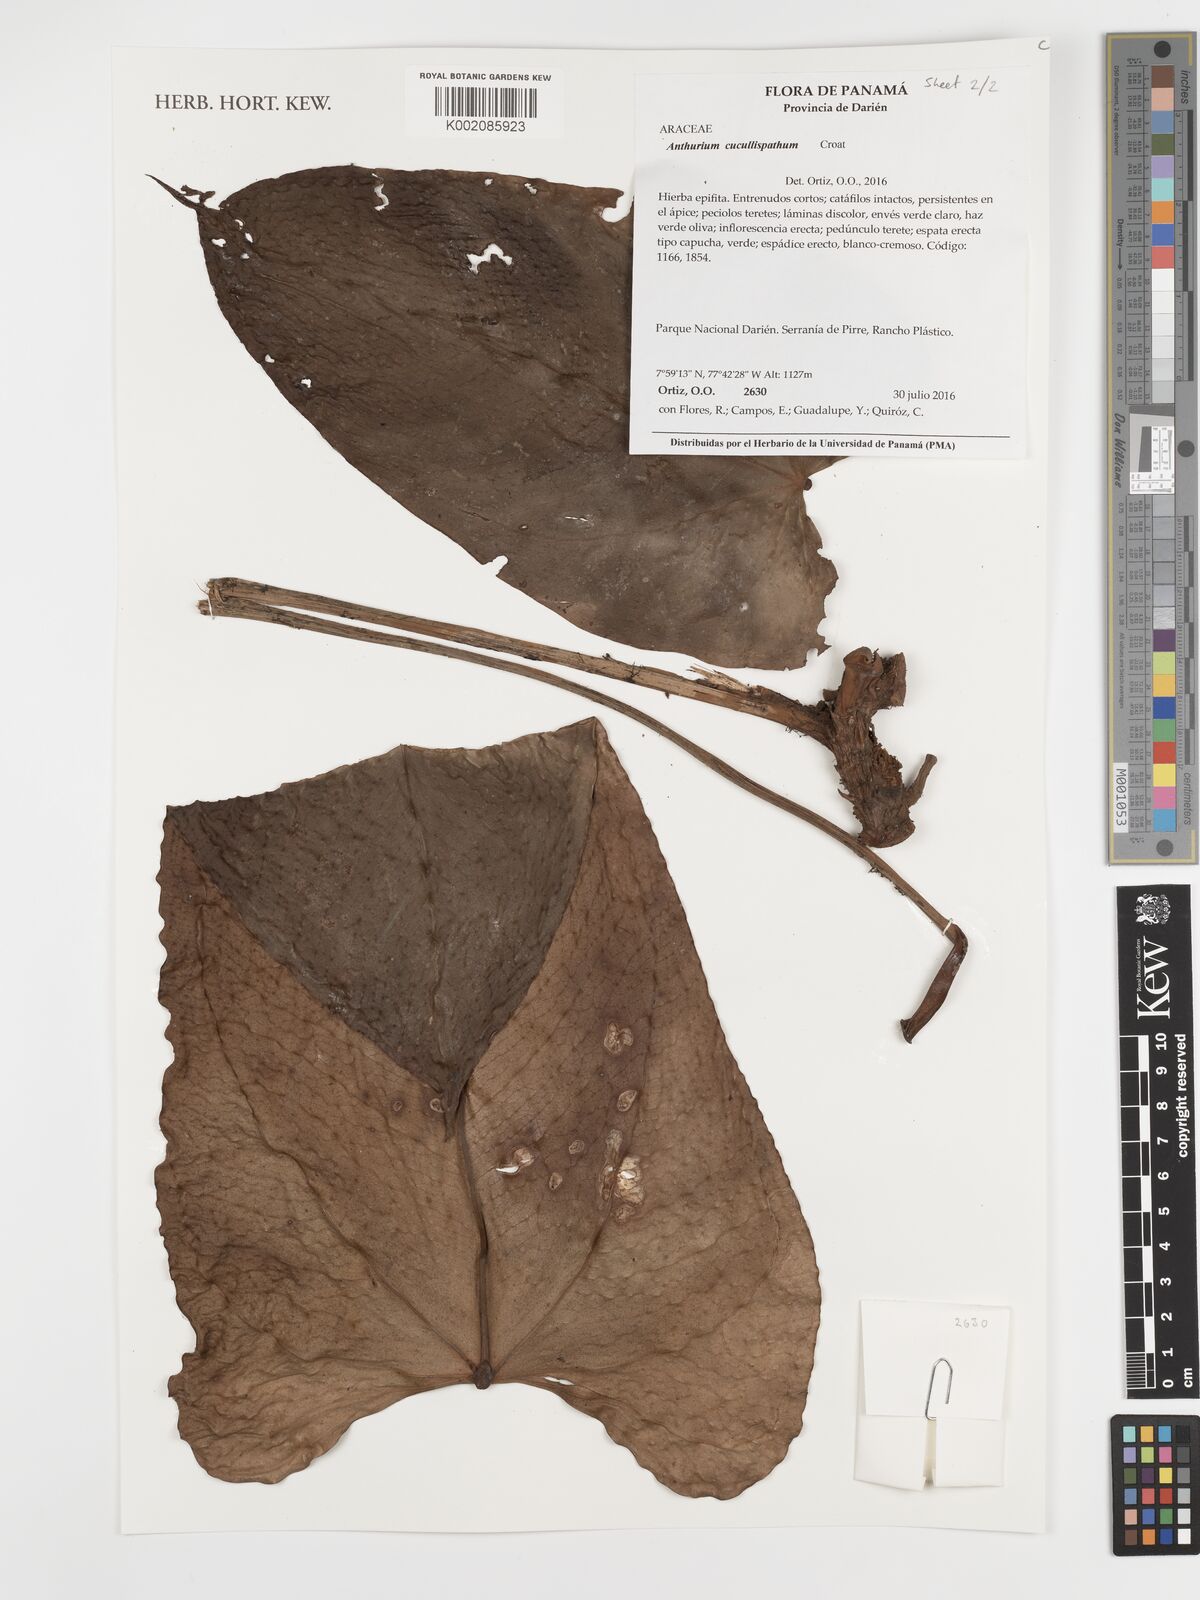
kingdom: Plantae
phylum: Tracheophyta
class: Liliopsida
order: Alismatales
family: Araceae
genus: Anthurium
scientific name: Anthurium cucullispathum
